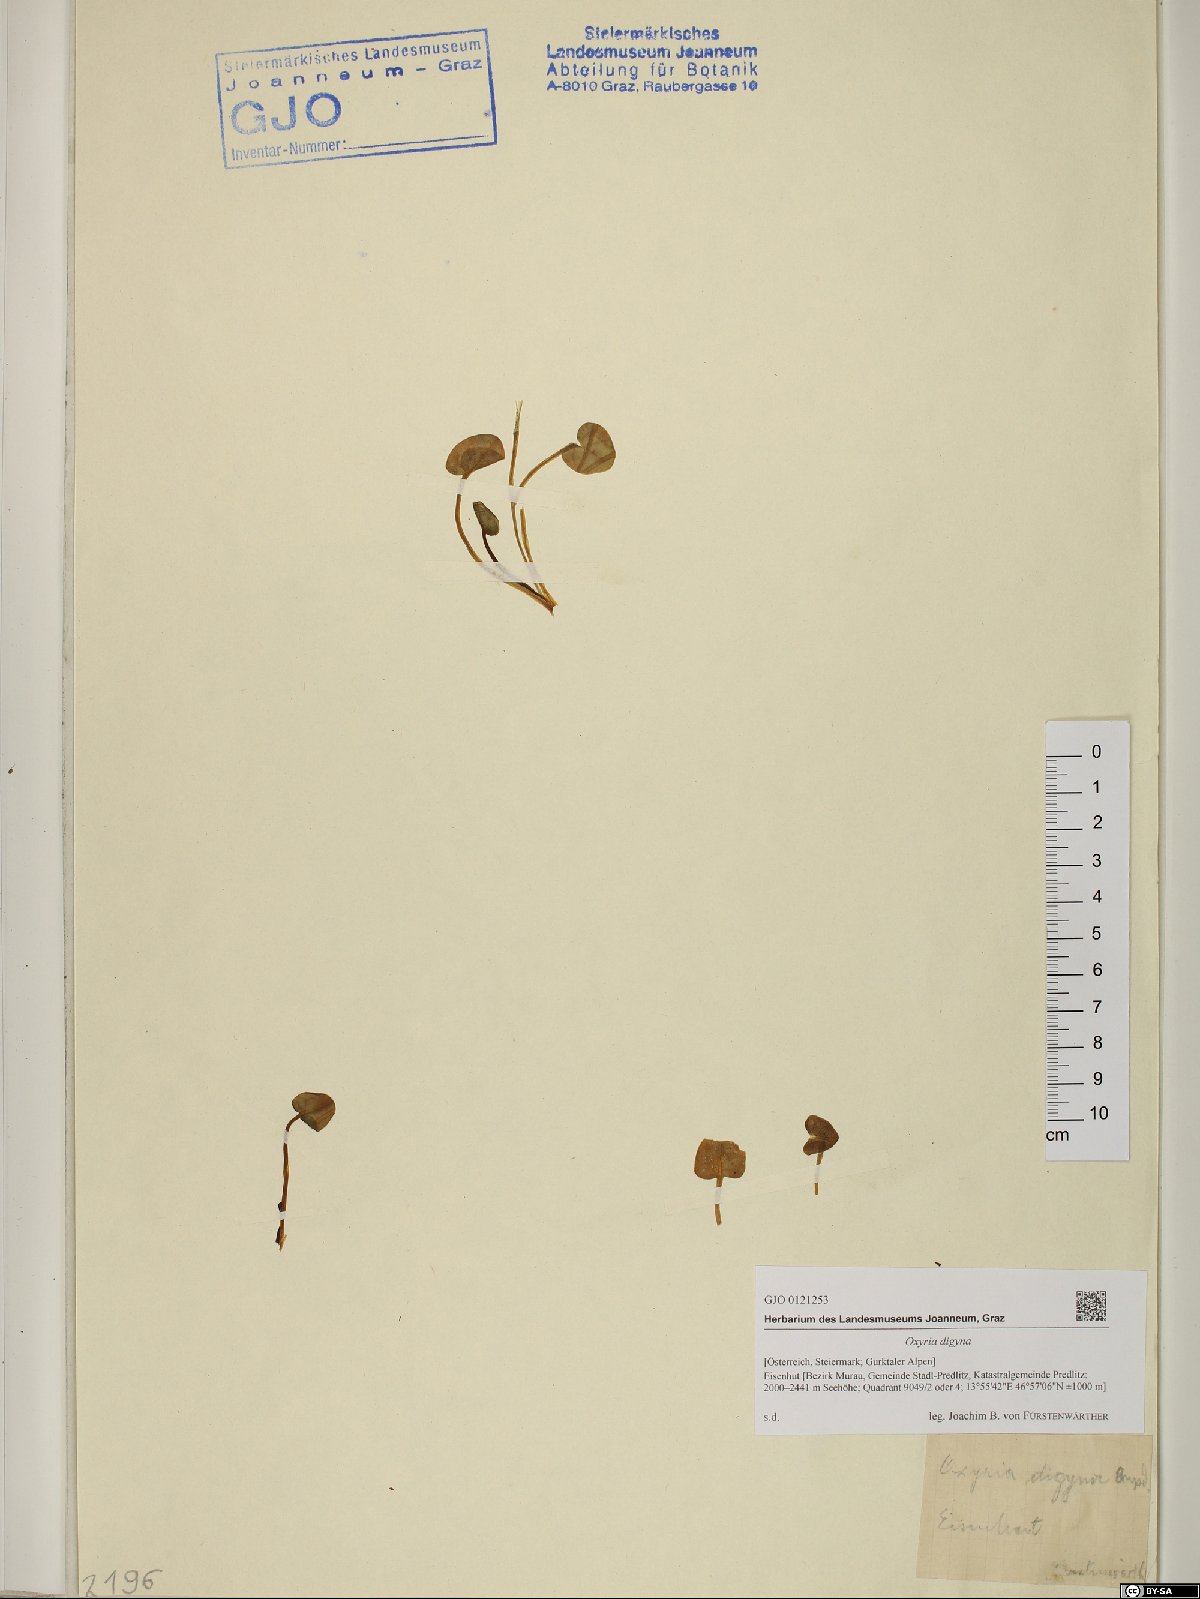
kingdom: Plantae
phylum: Tracheophyta
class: Magnoliopsida
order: Caryophyllales
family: Polygonaceae
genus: Oxyria
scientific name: Oxyria digyna
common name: Alpine mountain-sorrel
